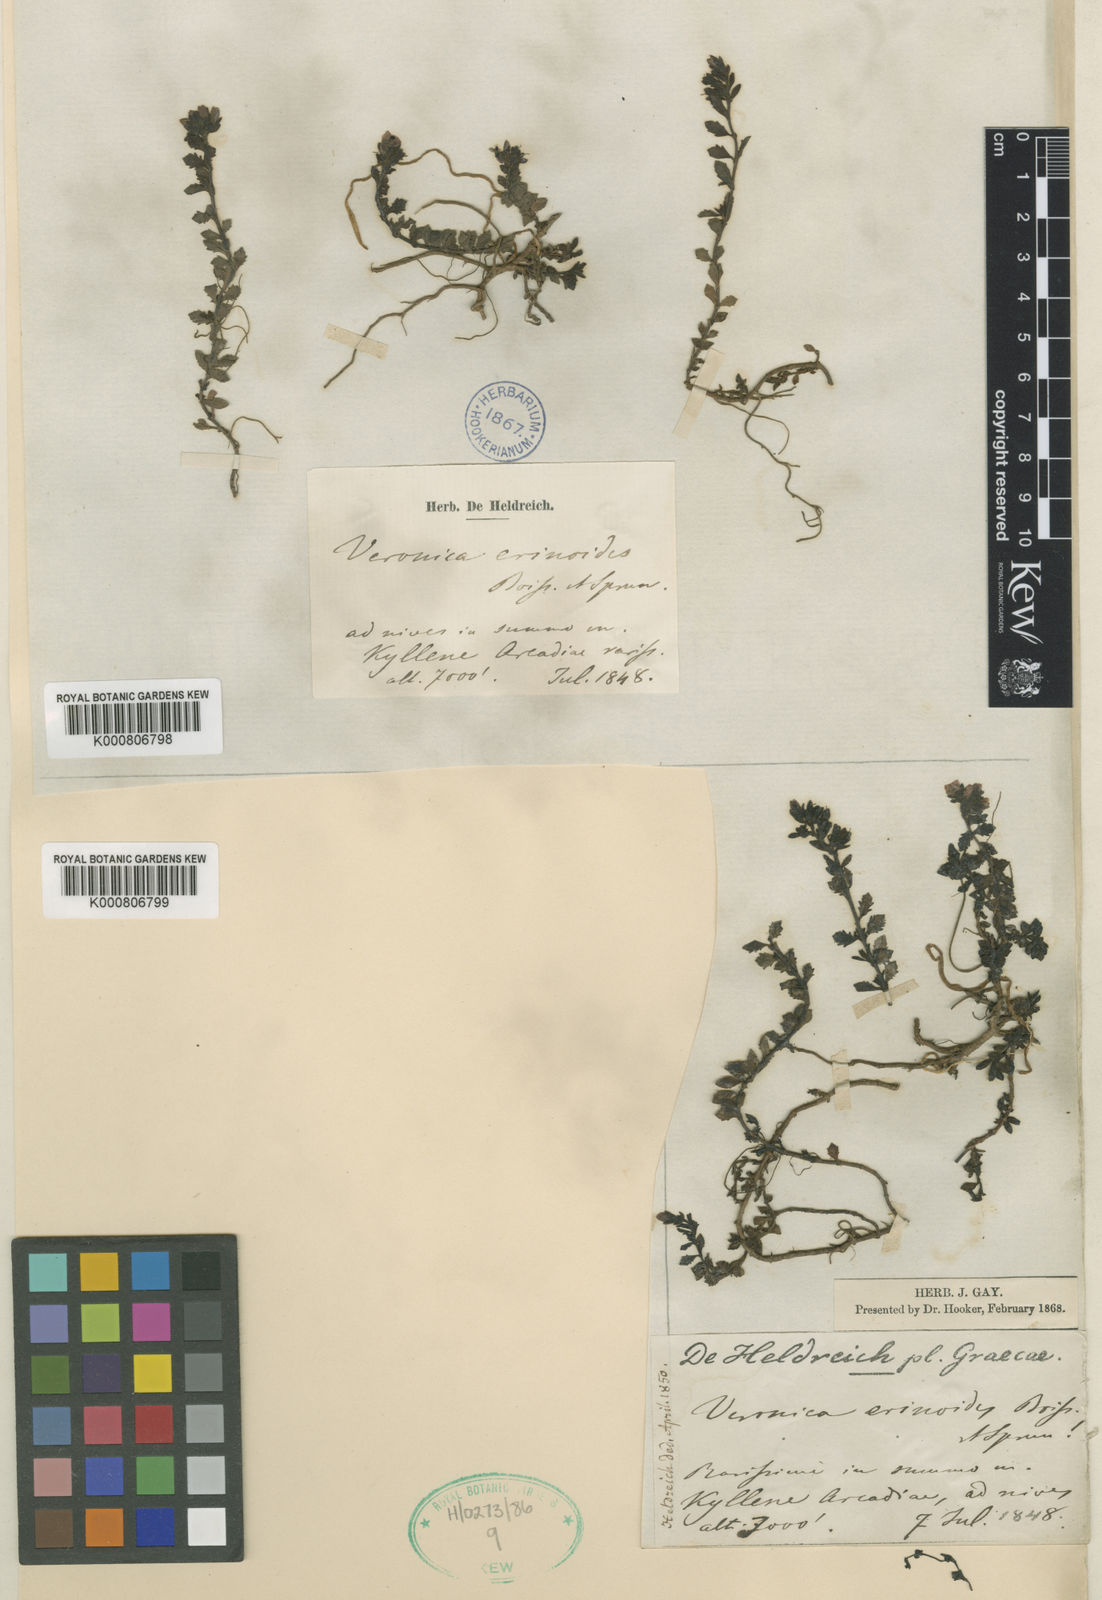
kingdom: Plantae
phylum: Tracheophyta
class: Magnoliopsida
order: Lamiales
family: Plantaginaceae
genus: Veronica
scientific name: Veronica erinoides
